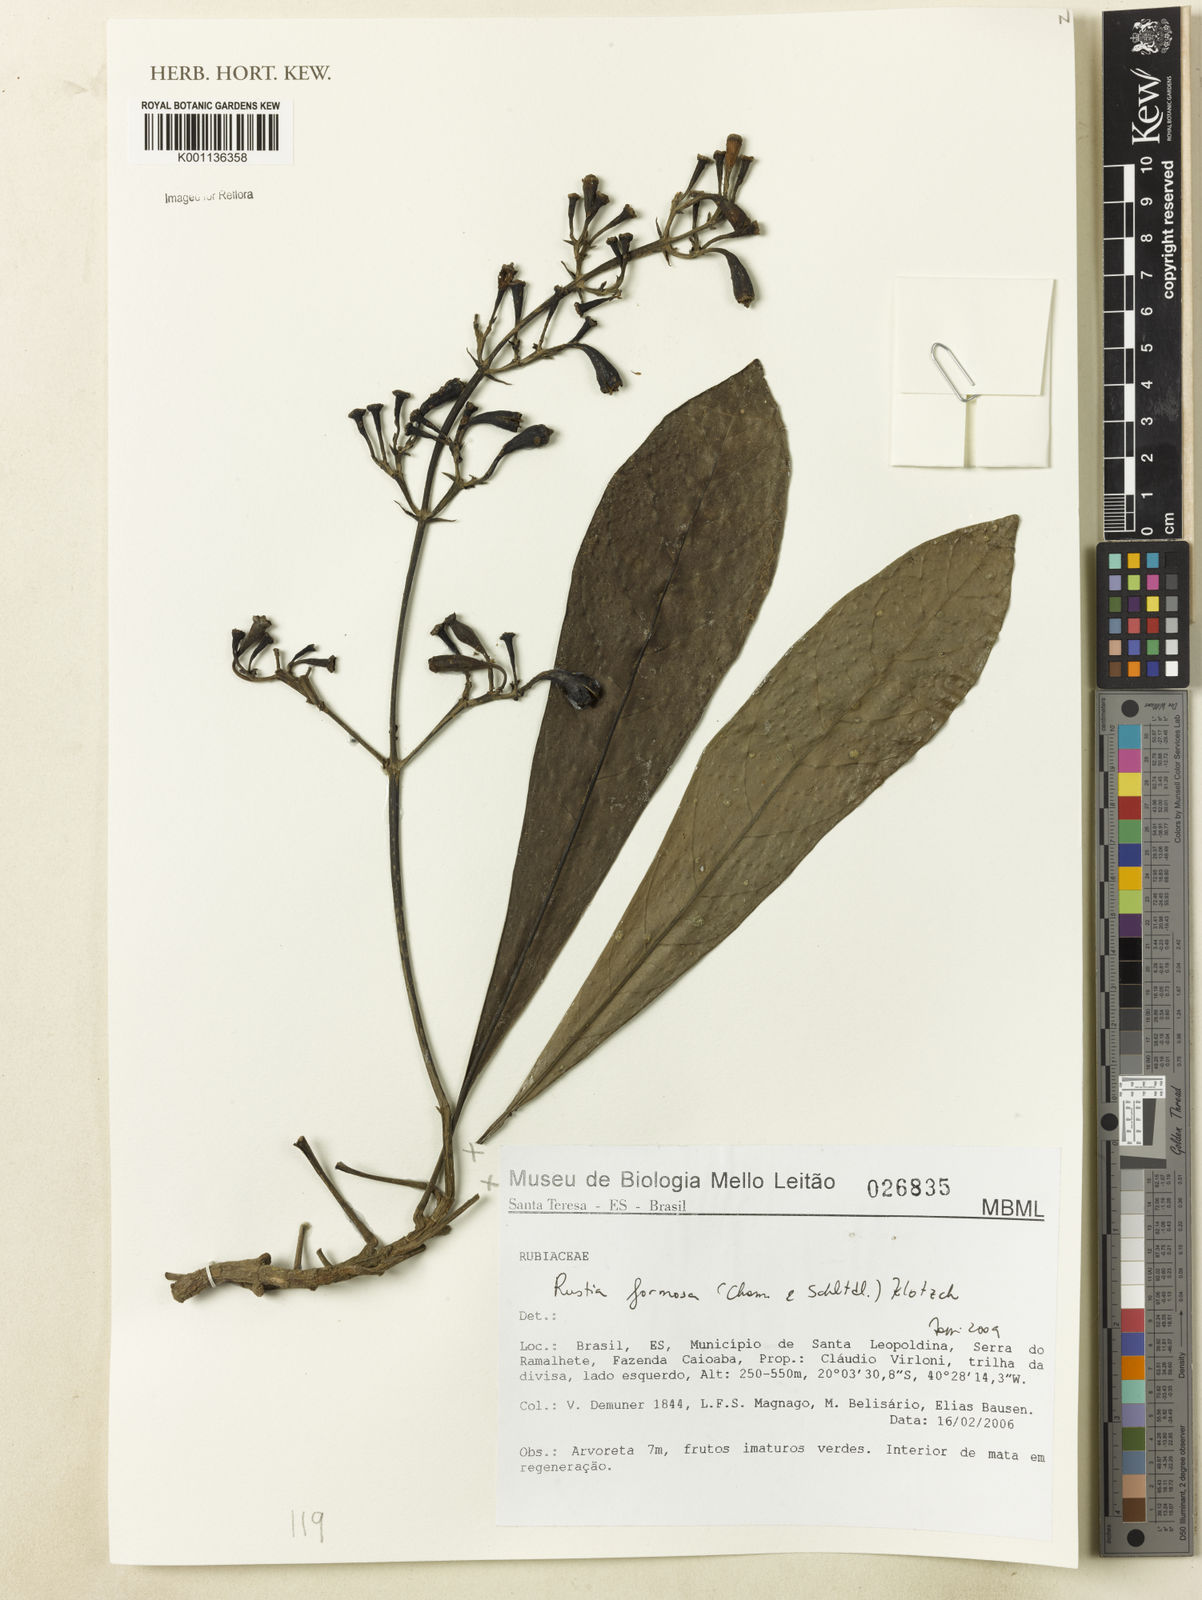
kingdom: Plantae
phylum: Tracheophyta
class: Magnoliopsida
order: Gentianales
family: Rubiaceae
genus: Rustia
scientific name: Rustia formosa
